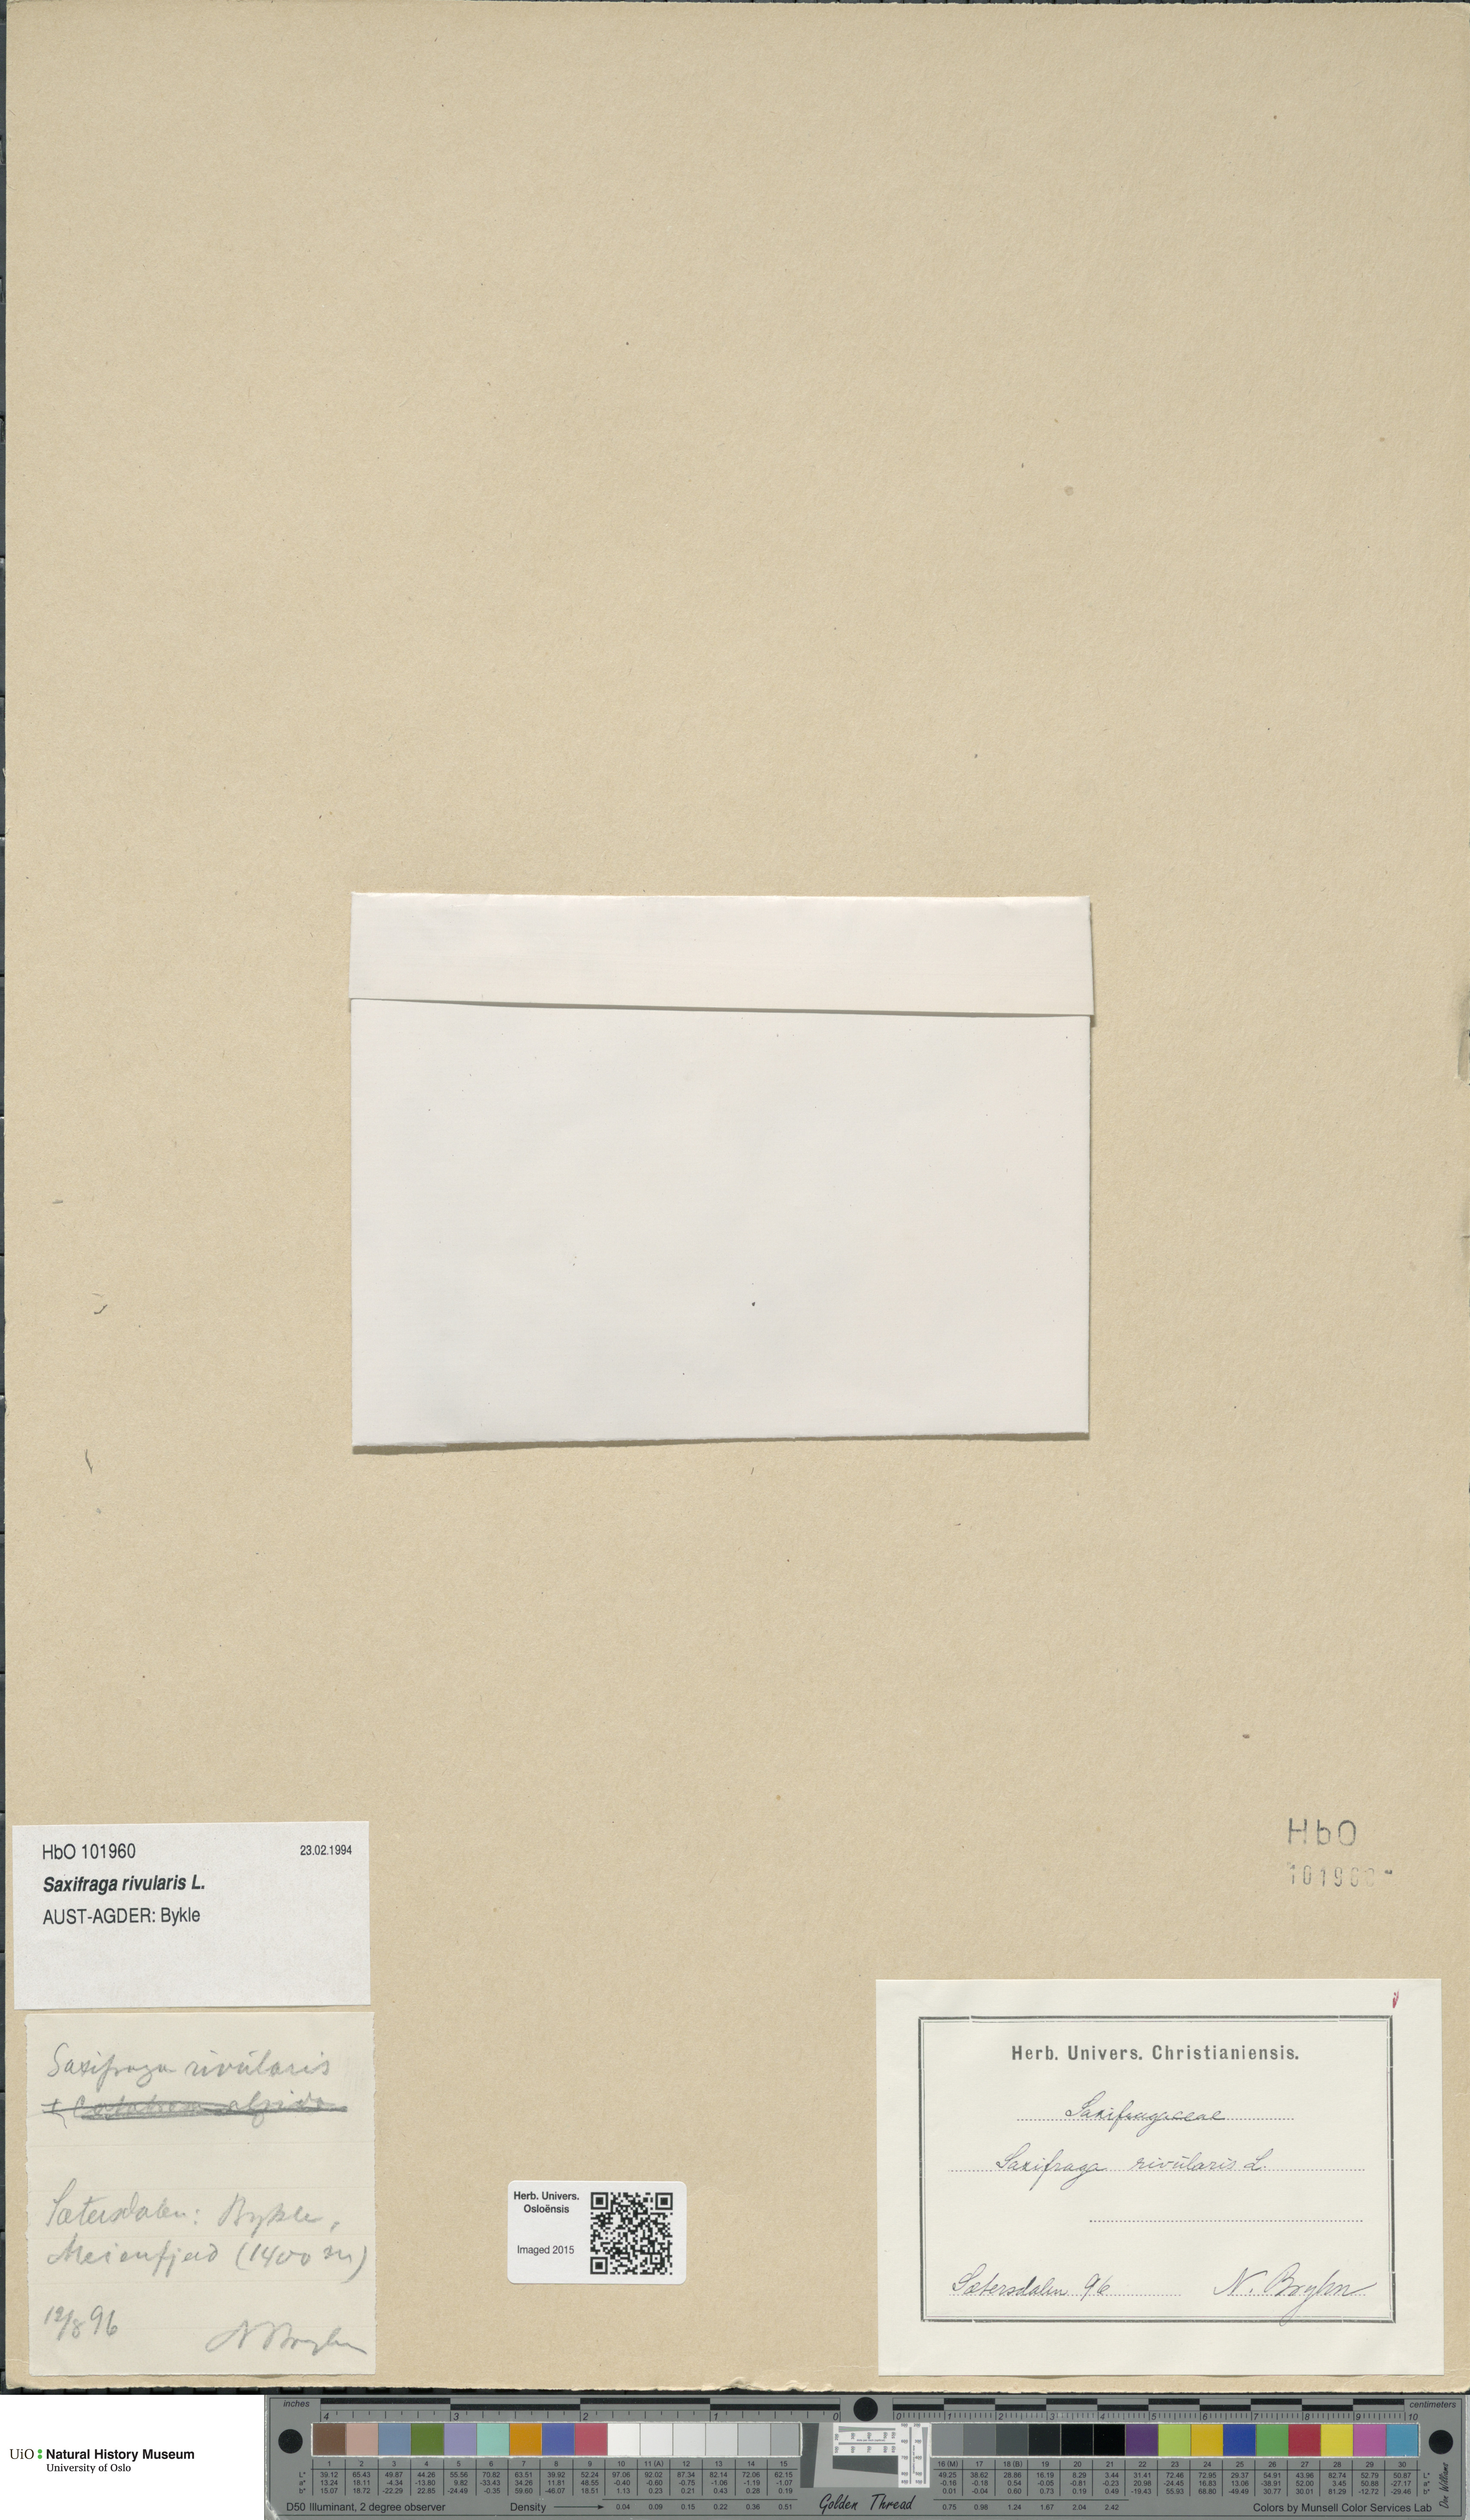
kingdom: Plantae
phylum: Tracheophyta
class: Magnoliopsida
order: Saxifragales
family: Saxifragaceae
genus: Saxifraga
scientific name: Saxifraga rivularis
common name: Highland saxifrage
